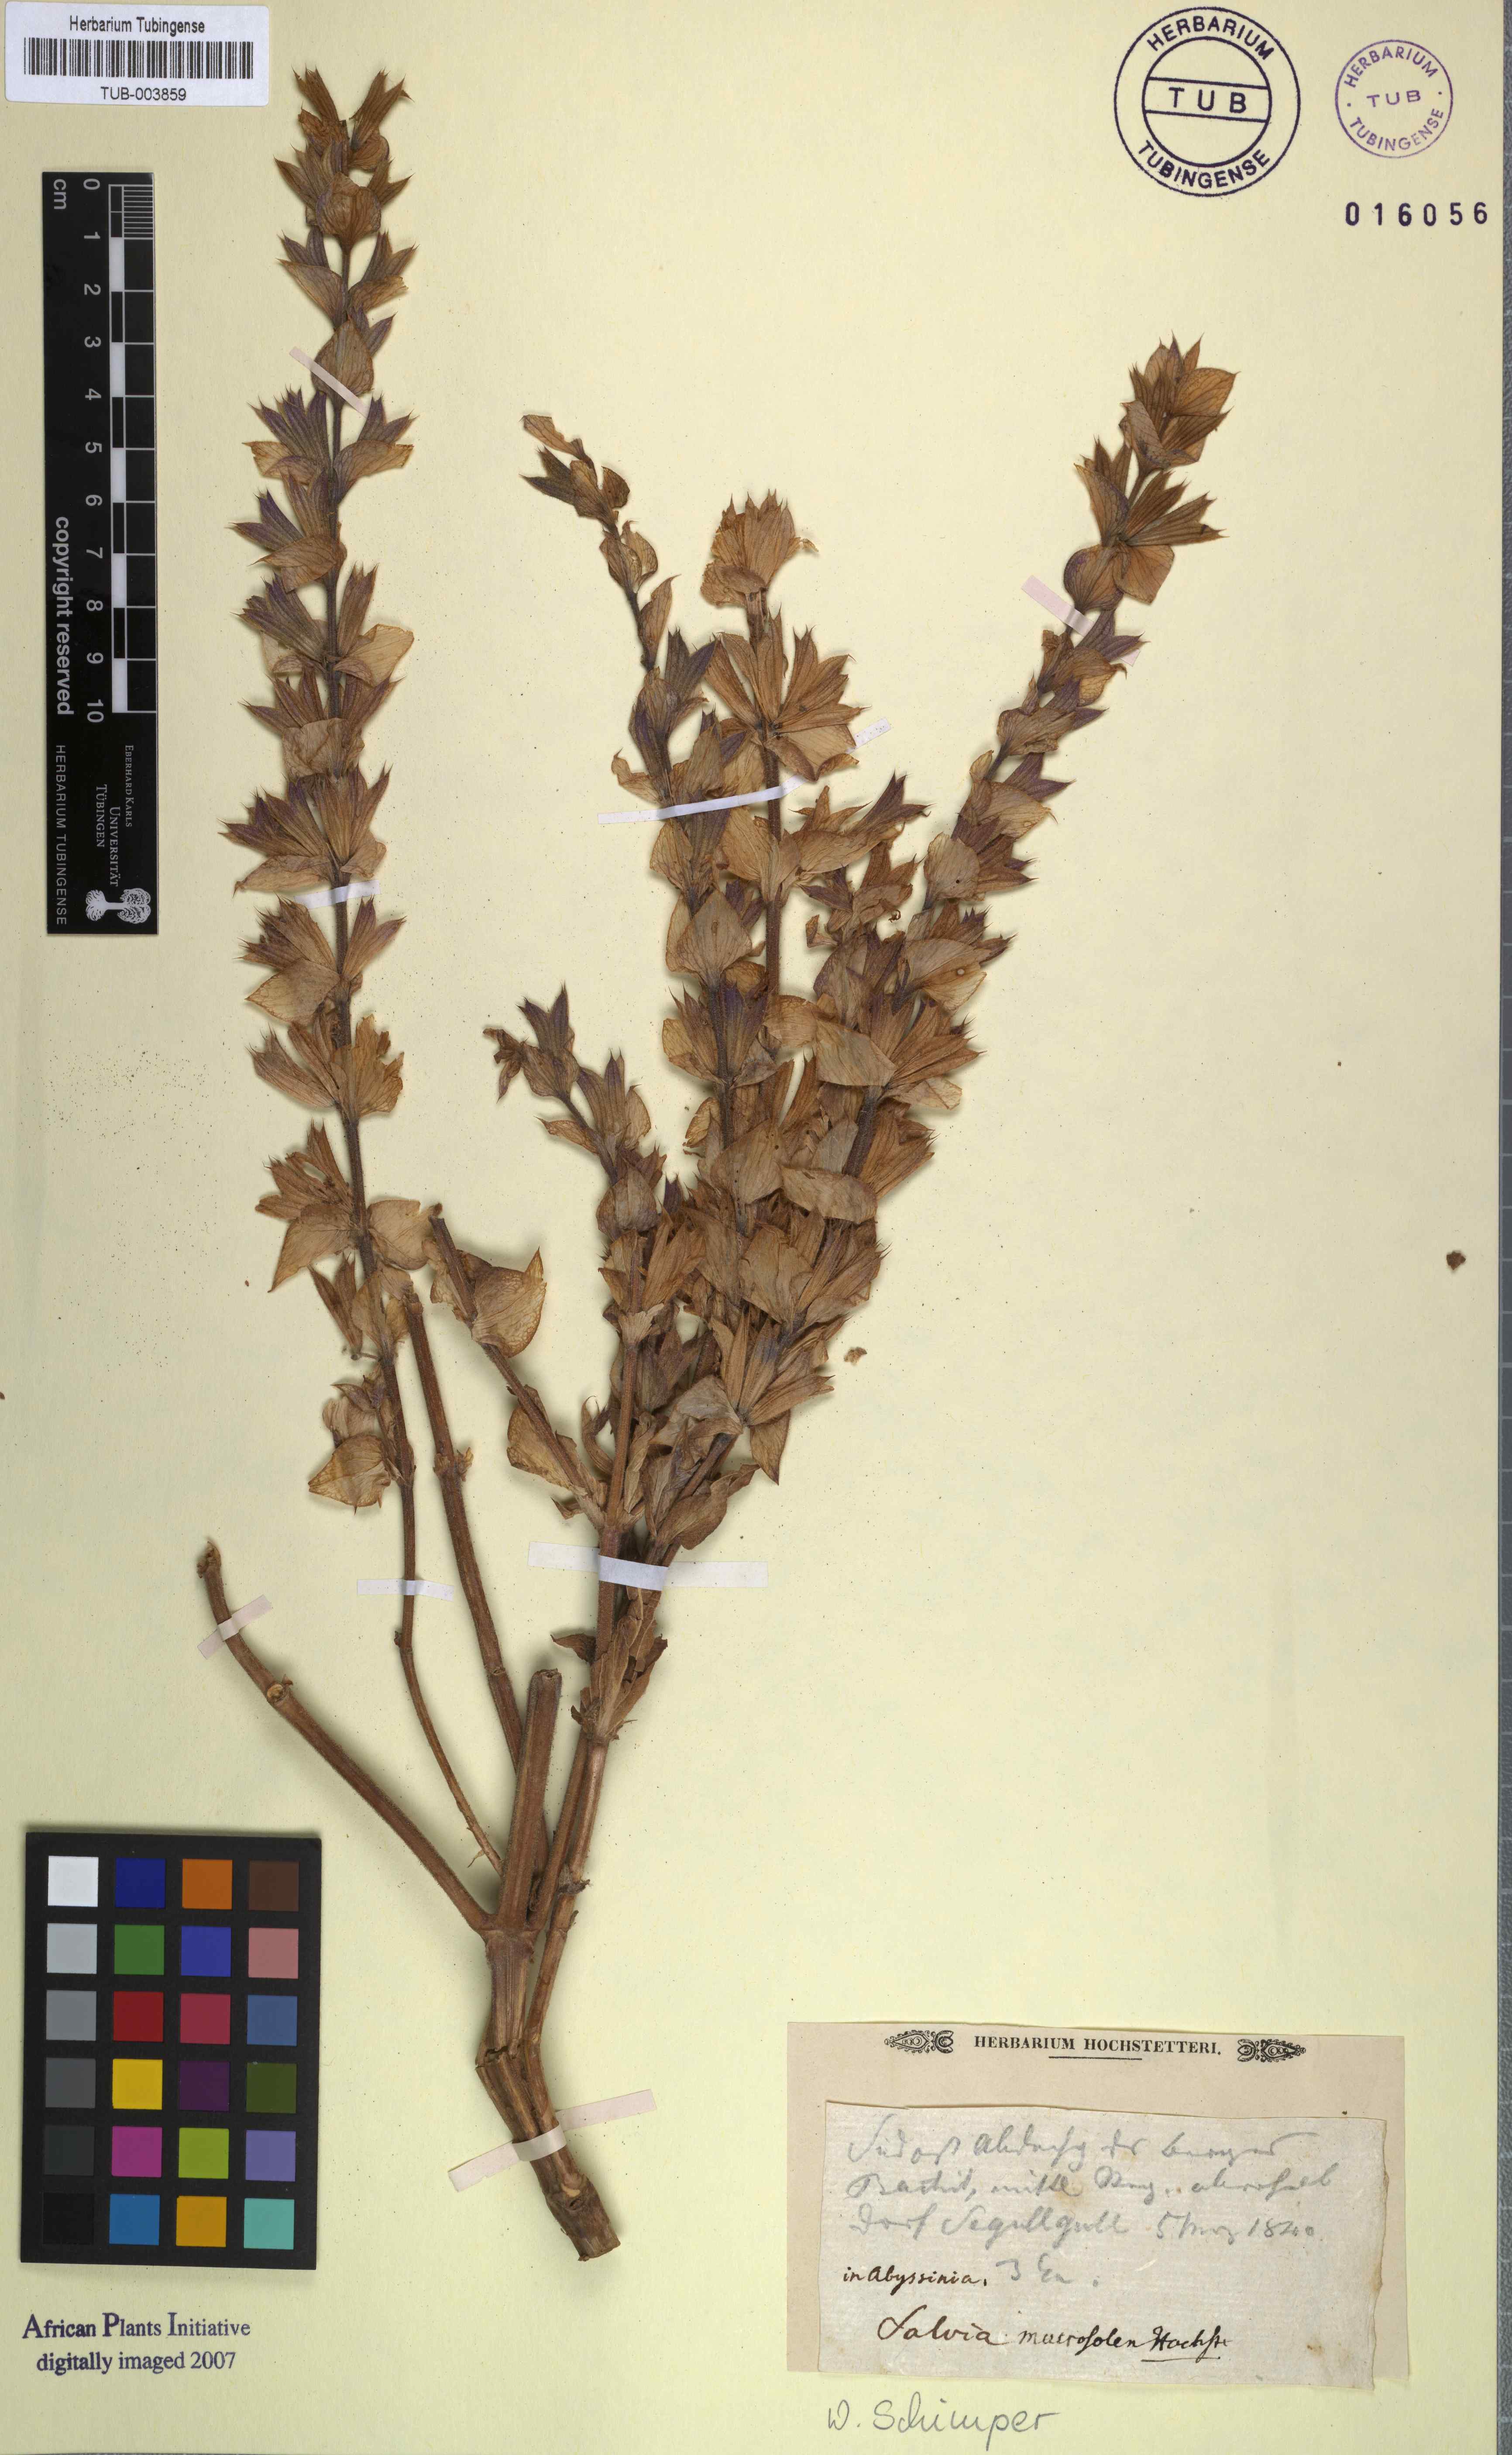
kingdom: Plantae
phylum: Tracheophyta
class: Magnoliopsida
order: Lamiales
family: Lamiaceae
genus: Salvia
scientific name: Salvia
